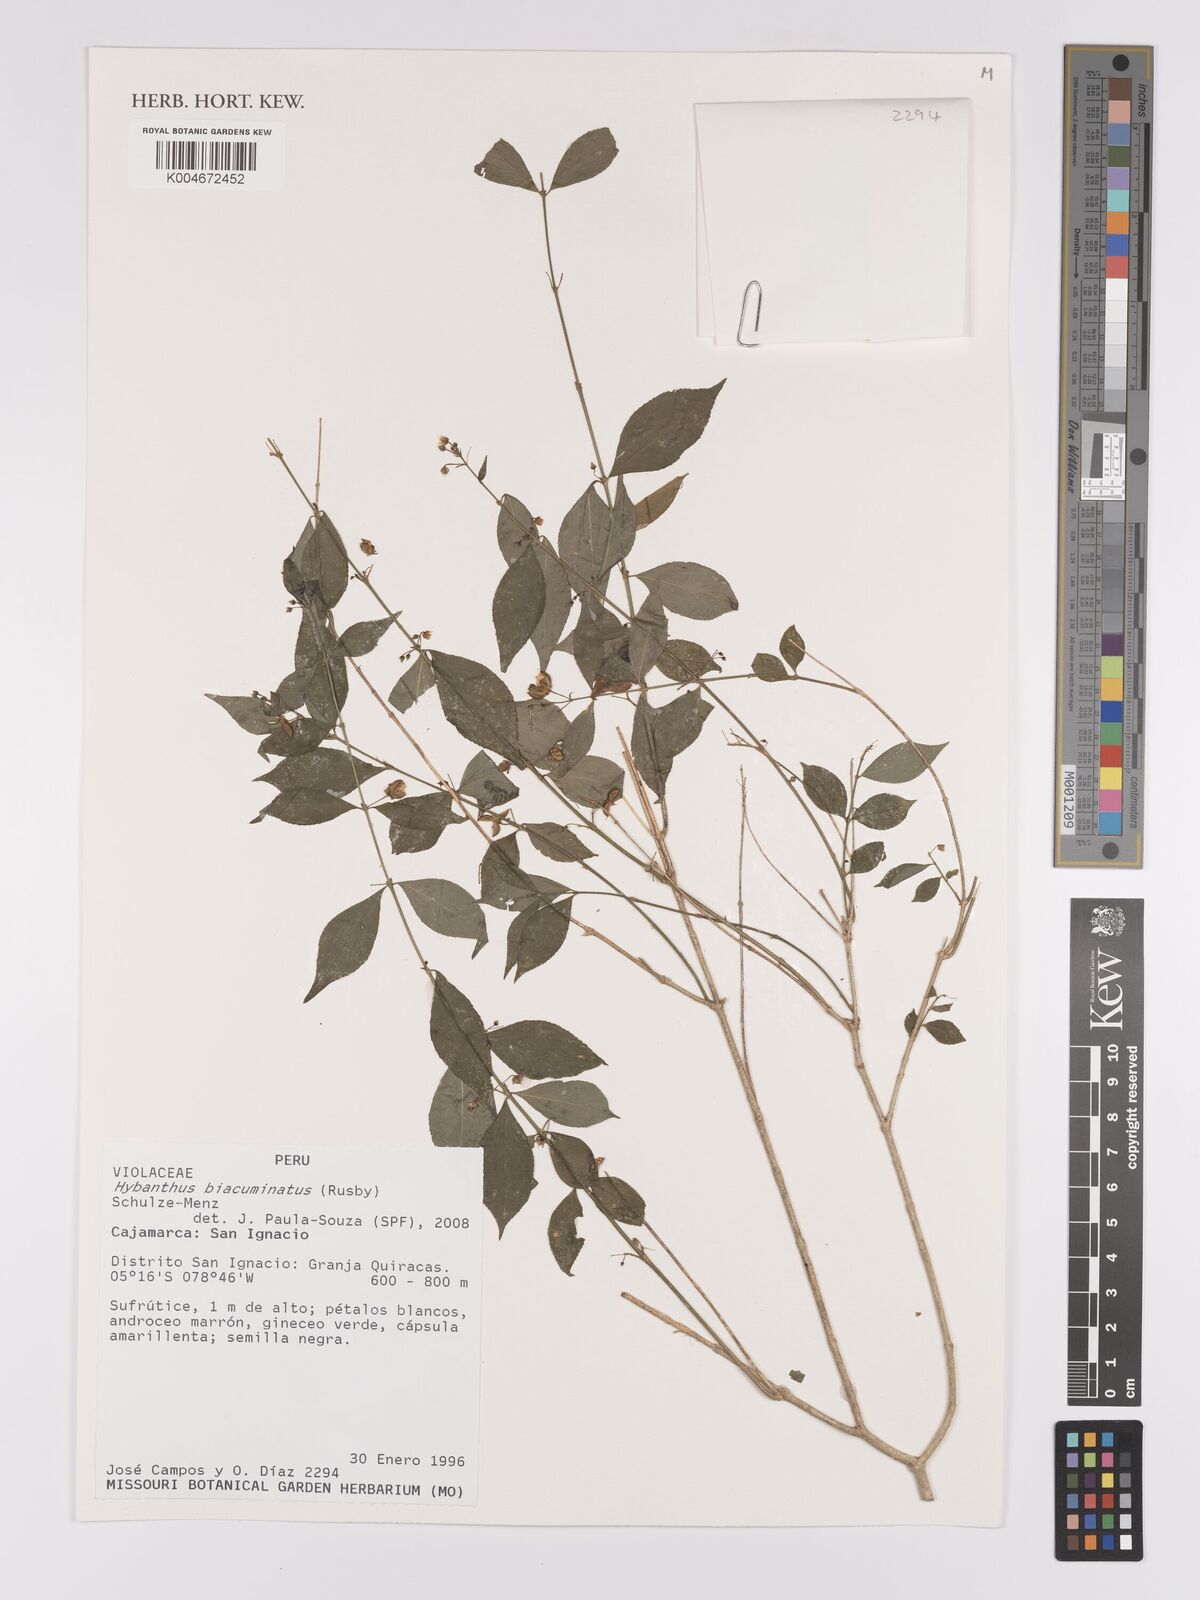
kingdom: Plantae
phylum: Tracheophyta
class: Magnoliopsida
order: Malpighiales
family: Violaceae
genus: Pombalia
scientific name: Pombalia sprucei
